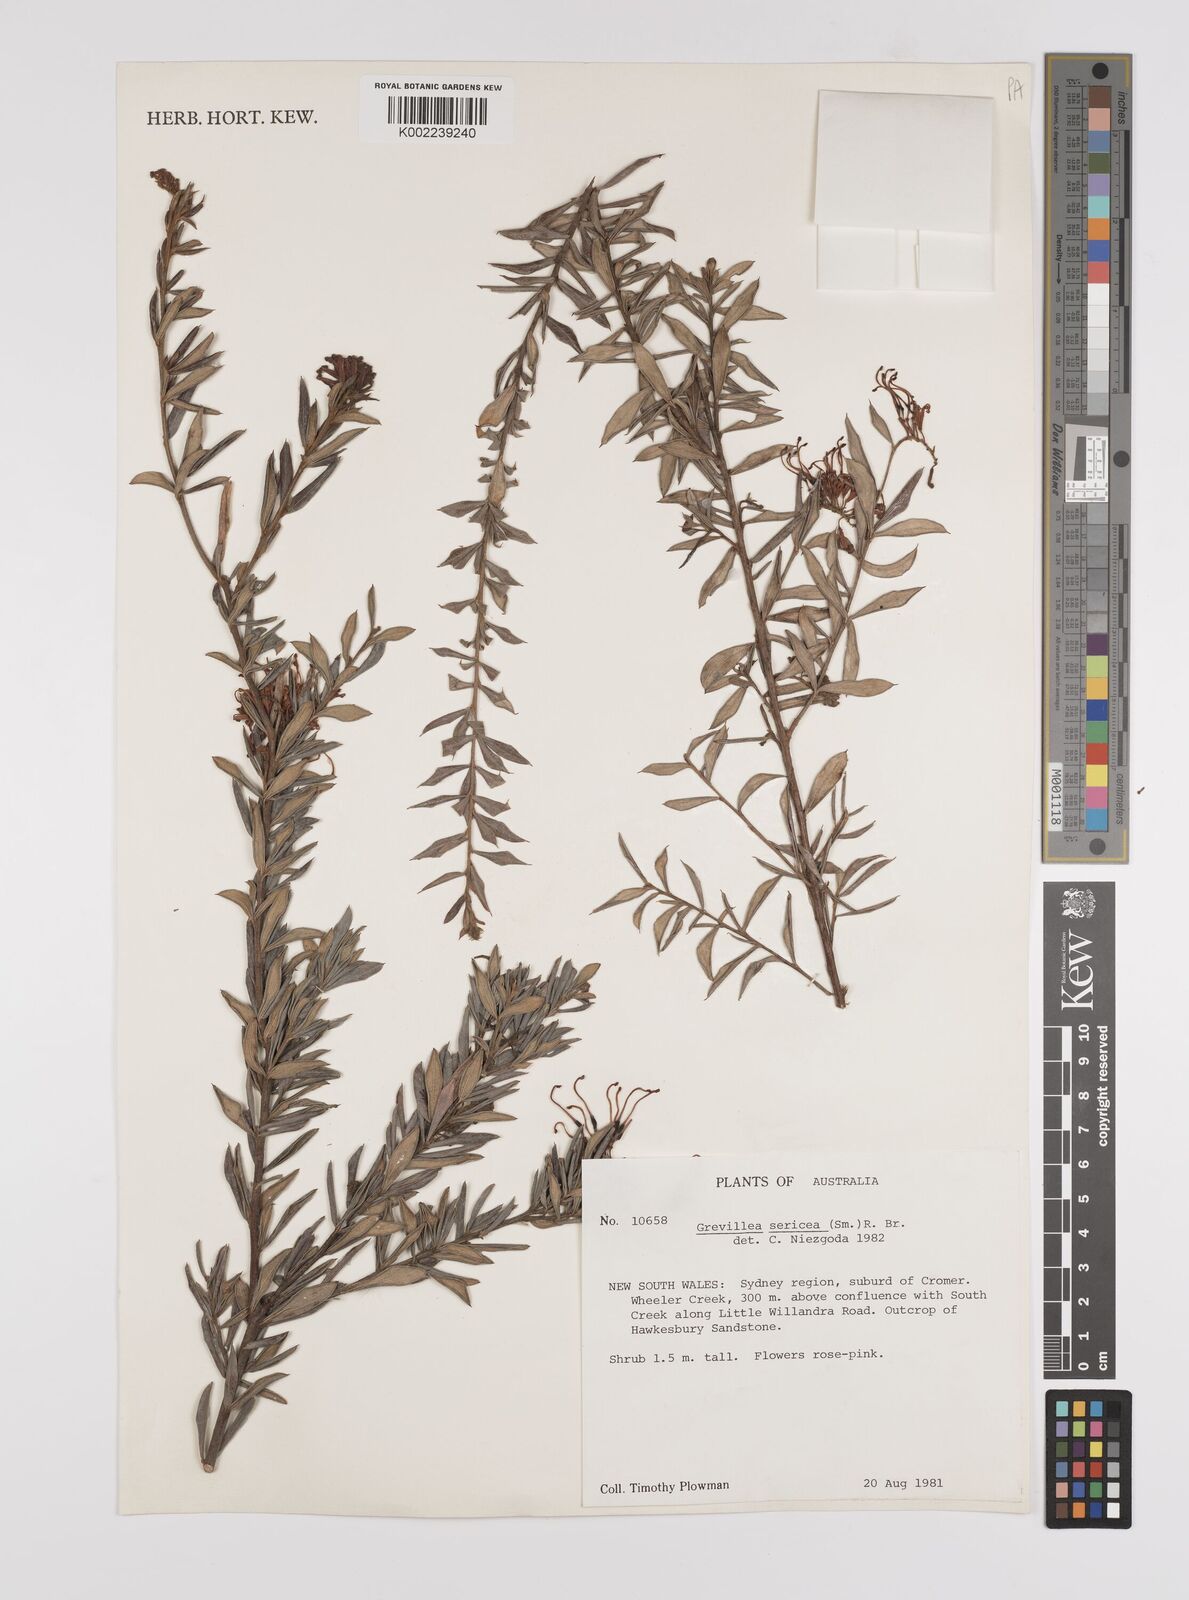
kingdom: Plantae
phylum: Tracheophyta
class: Magnoliopsida
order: Proteales
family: Proteaceae
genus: Grevillea
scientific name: Grevillea sericea
